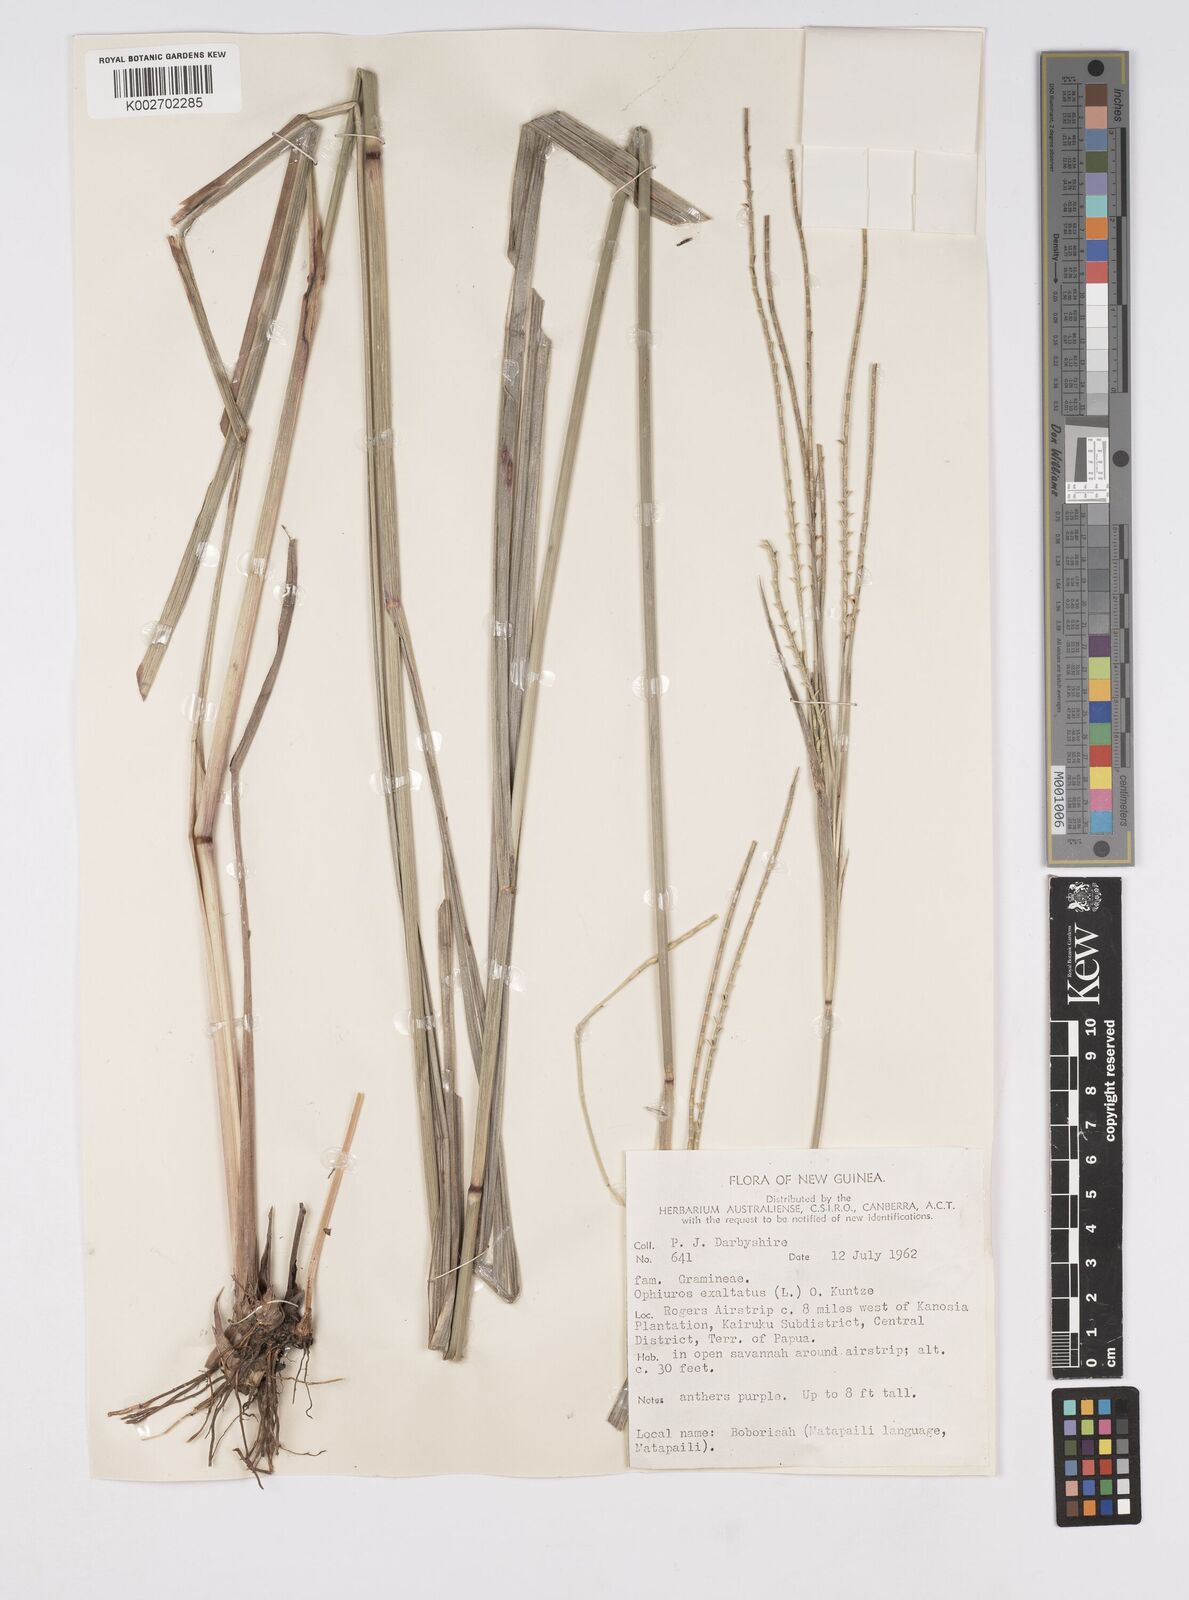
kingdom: Plantae
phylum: Tracheophyta
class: Liliopsida
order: Poales
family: Poaceae
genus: Ophiuros
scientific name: Ophiuros exaltatus
